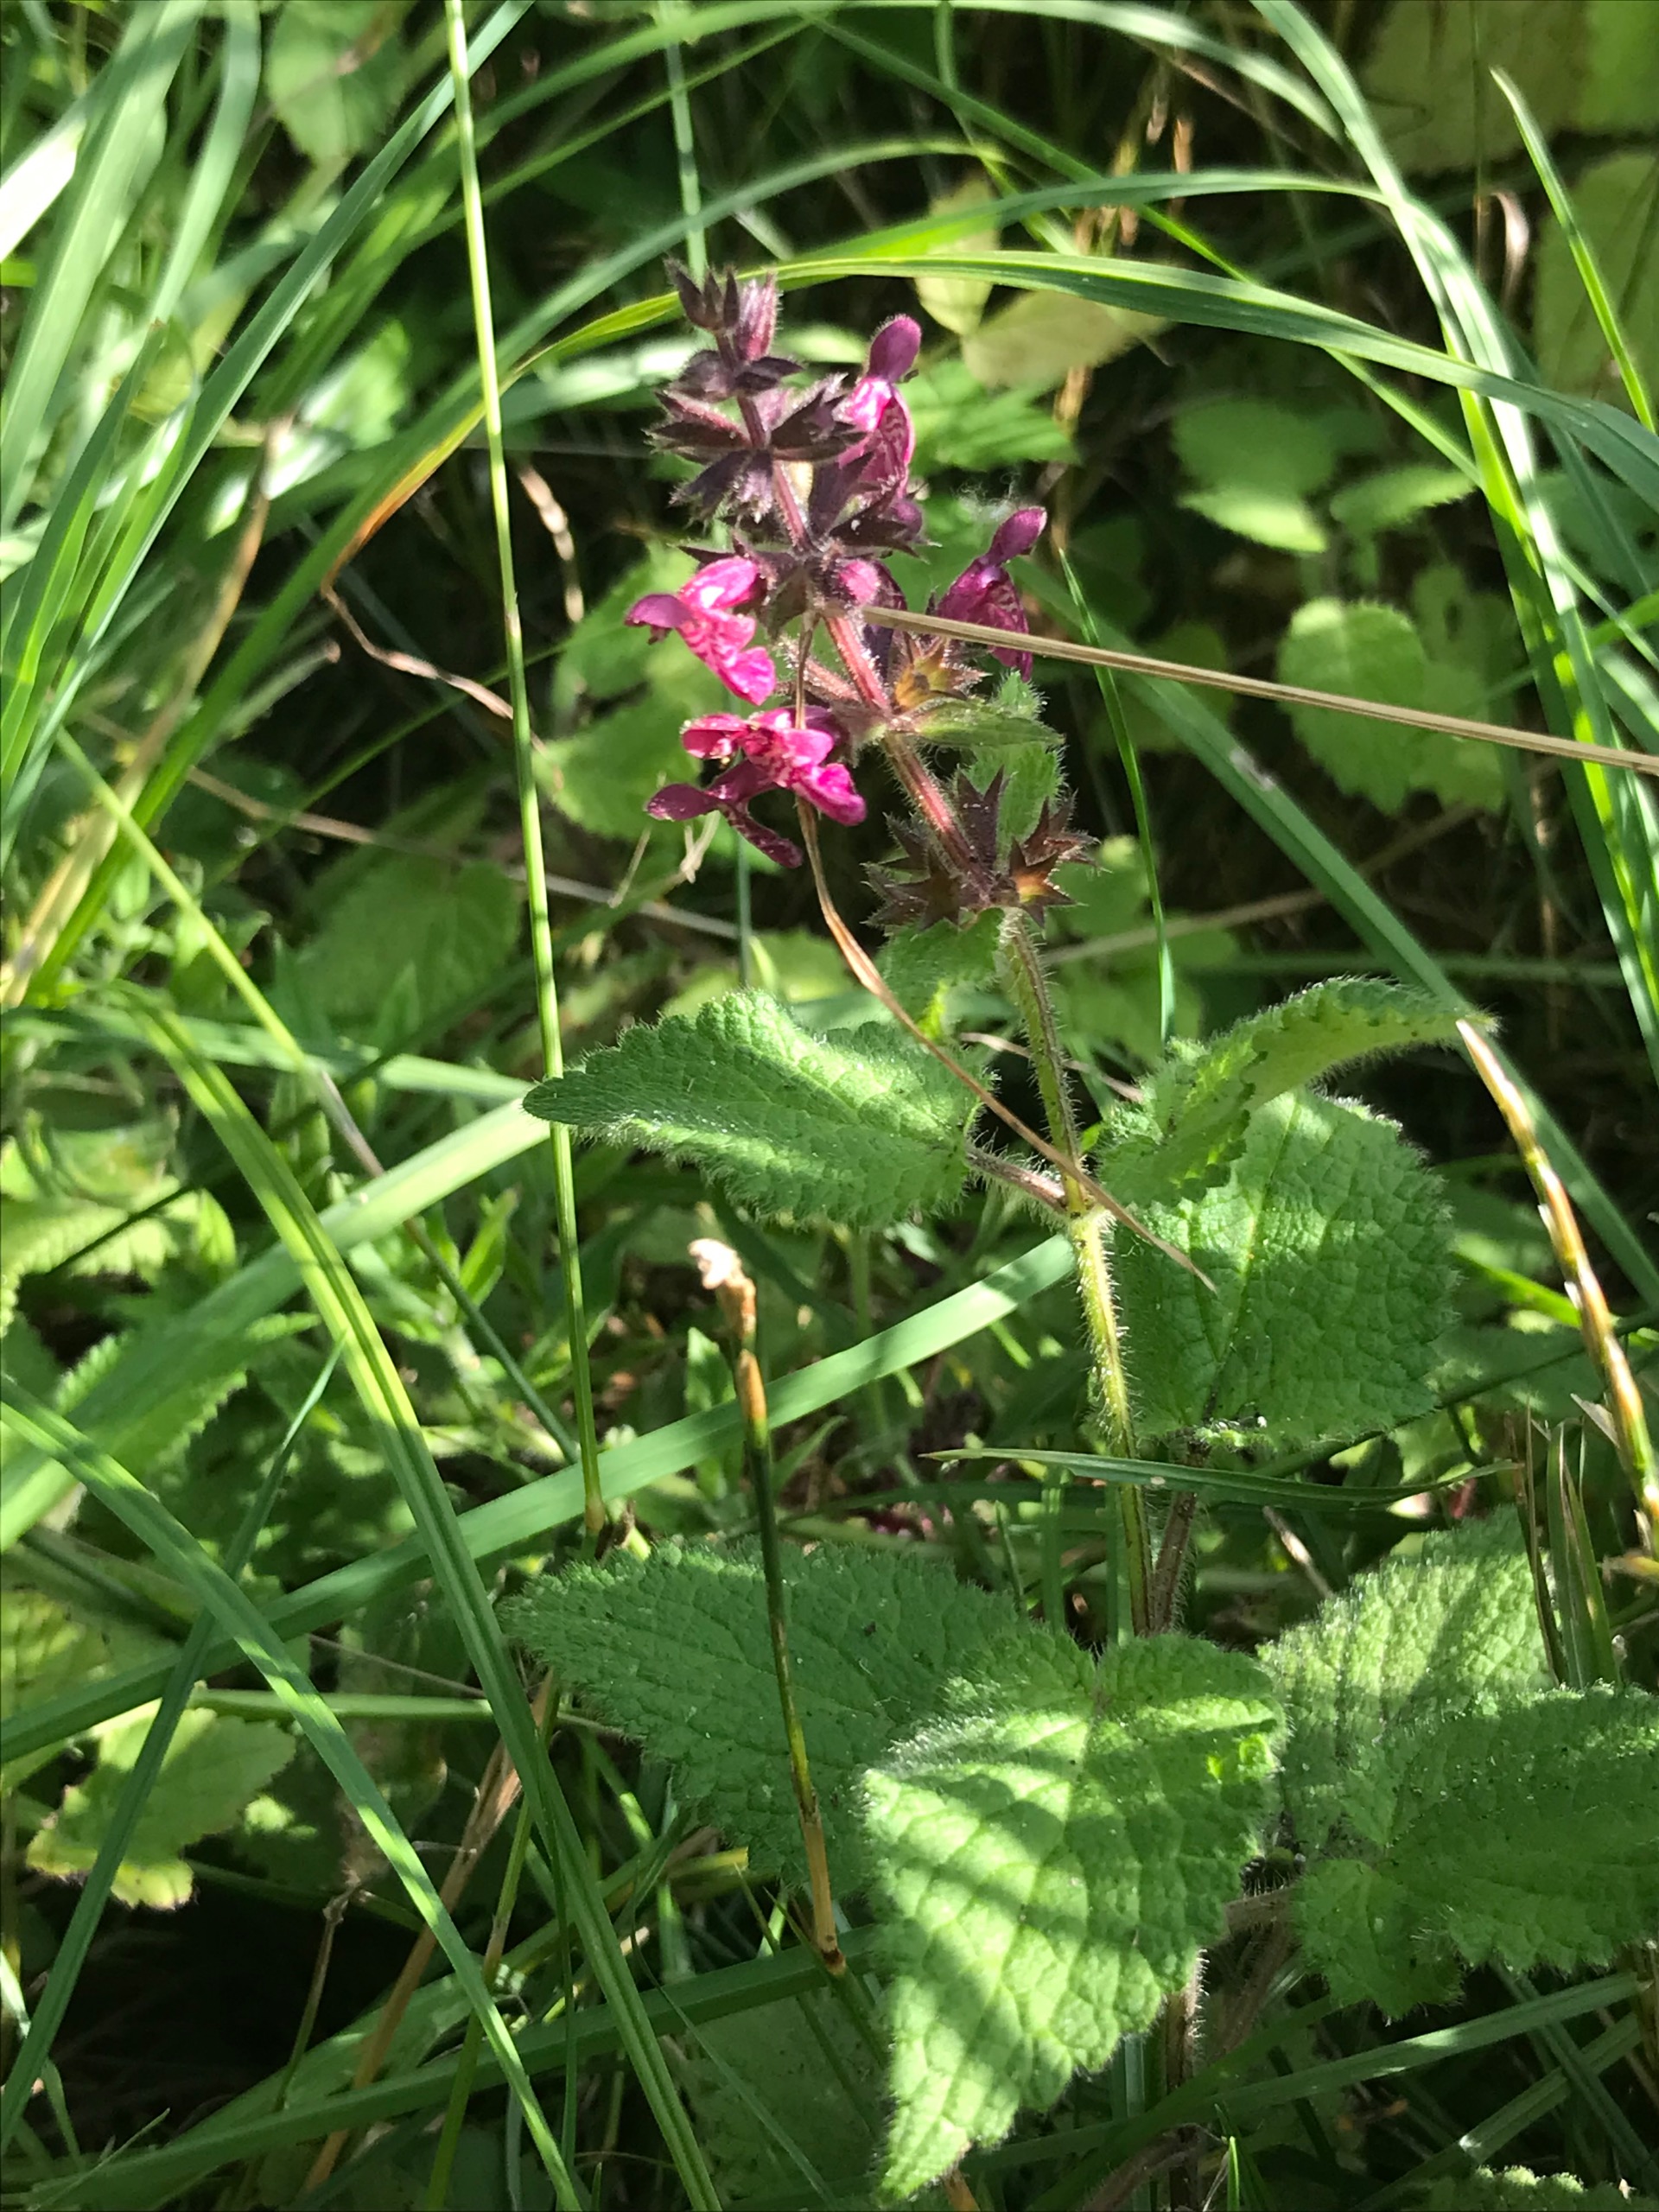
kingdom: Plantae
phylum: Tracheophyta
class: Magnoliopsida
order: Lamiales
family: Lamiaceae
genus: Stachys
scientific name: Stachys sylvatica
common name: Skov-galtetand
